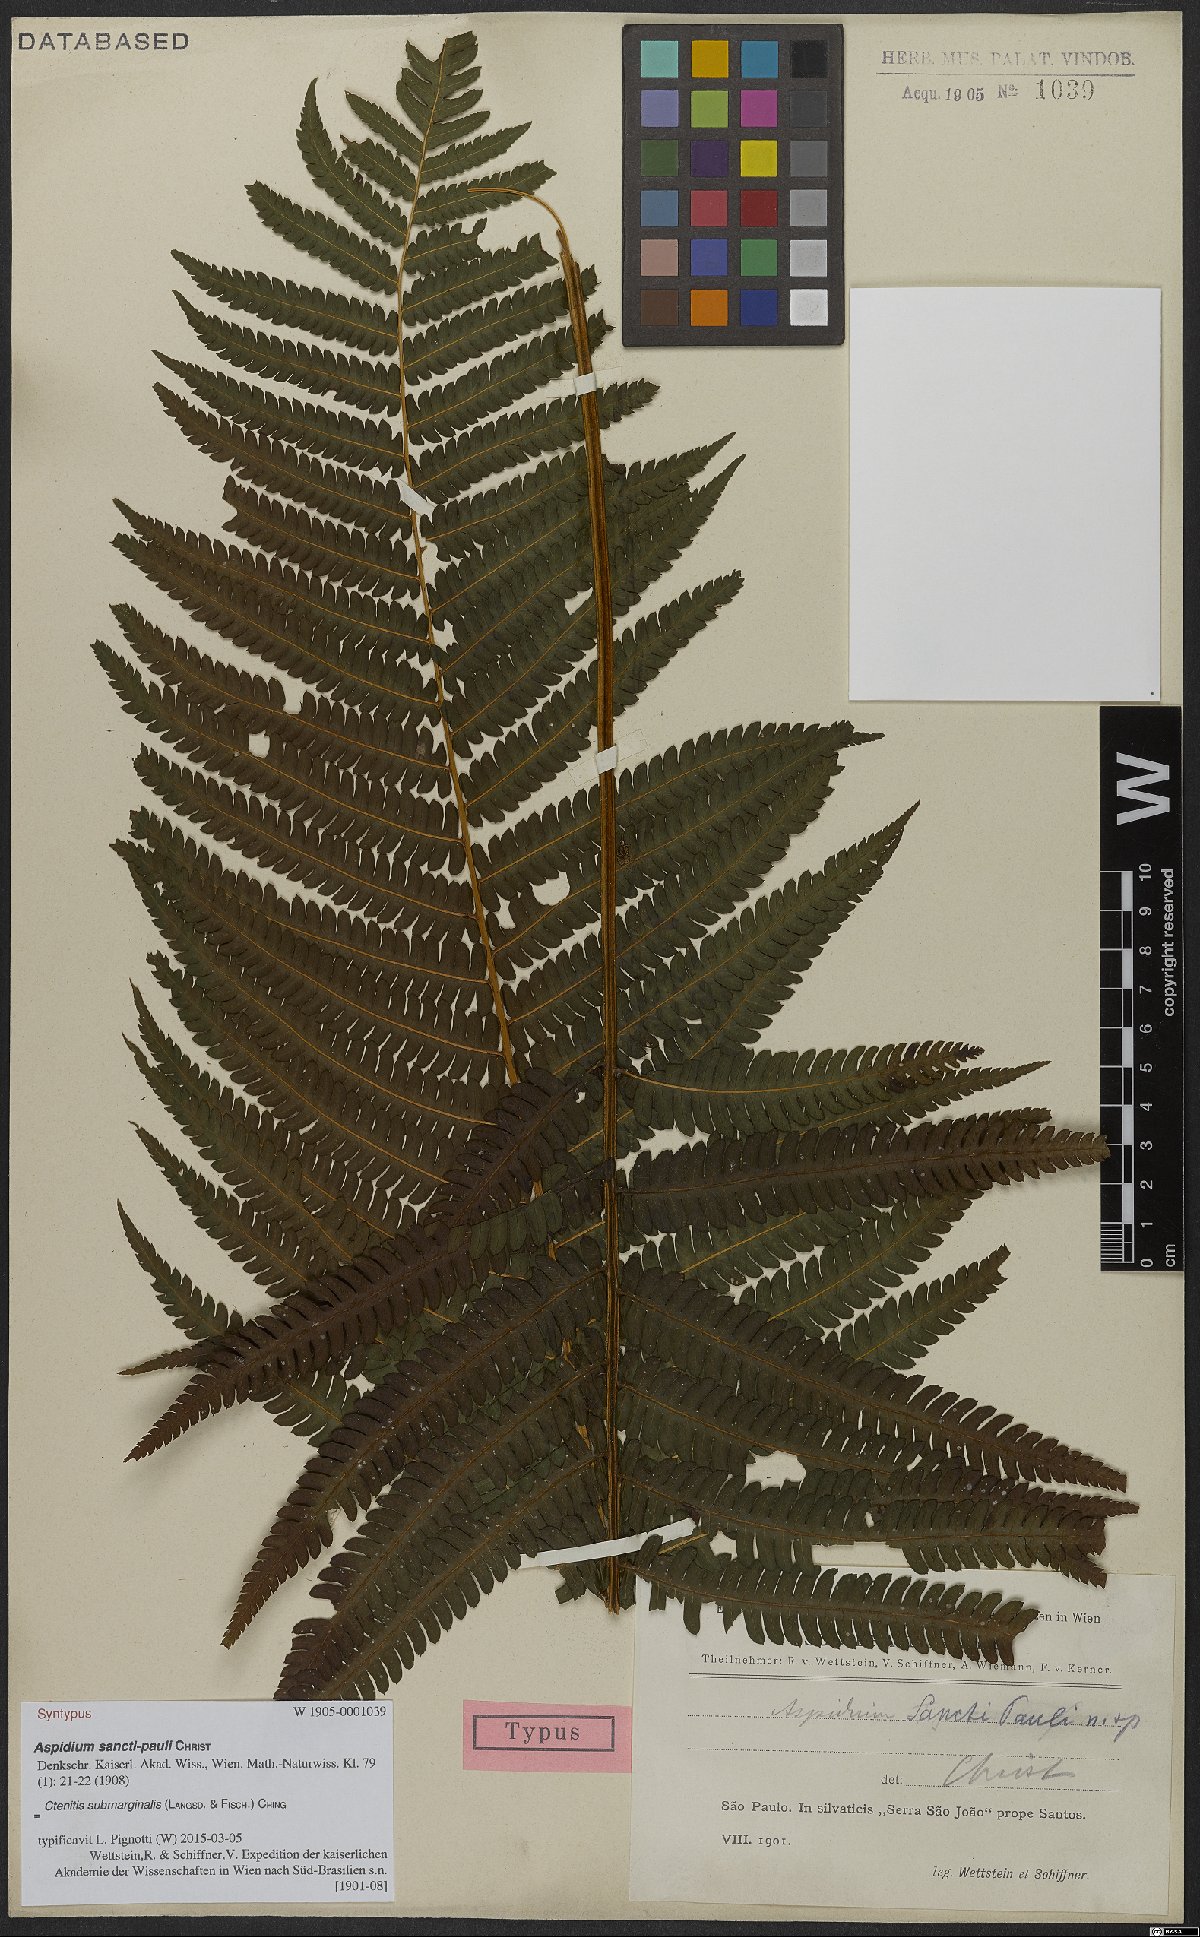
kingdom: Plantae
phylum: Tracheophyta
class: Polypodiopsida
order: Polypodiales
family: Dryopteridaceae
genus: Ctenitis
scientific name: Ctenitis submarginalis
